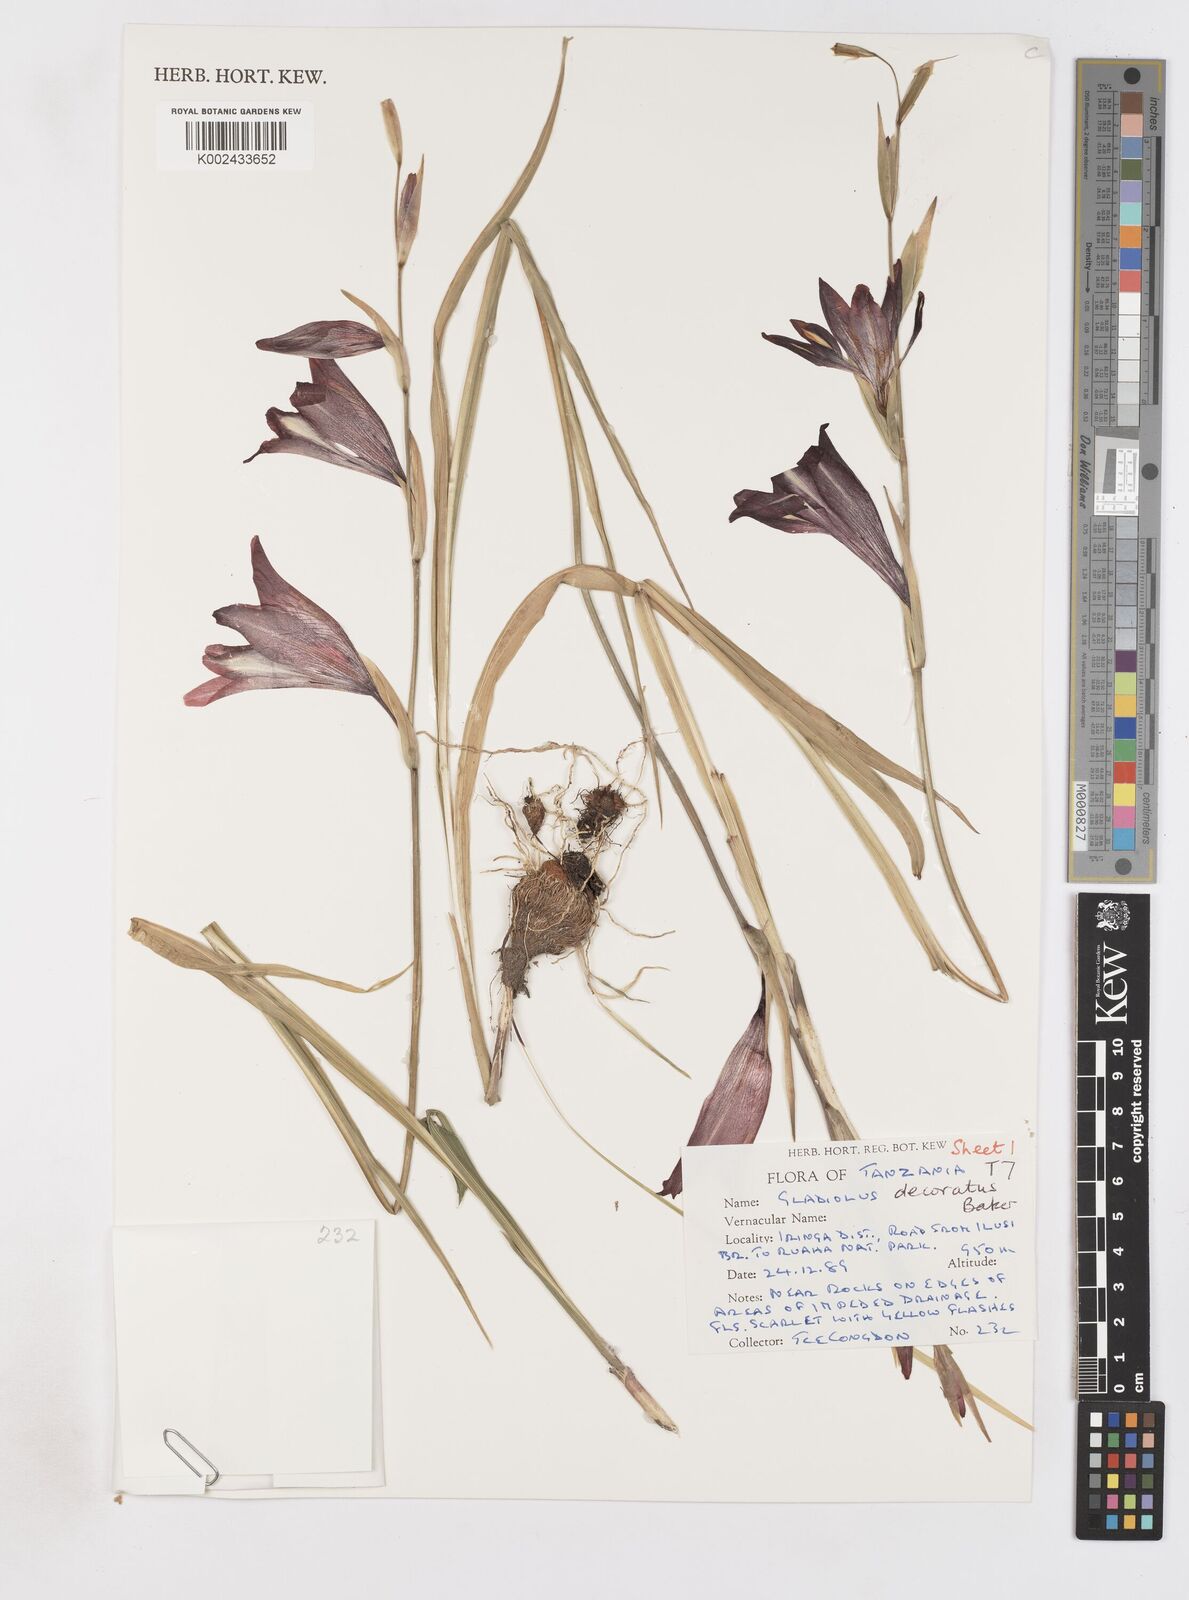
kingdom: Plantae
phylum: Tracheophyta
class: Liliopsida
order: Asparagales
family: Iridaceae
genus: Gladiolus
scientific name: Gladiolus decoratus
